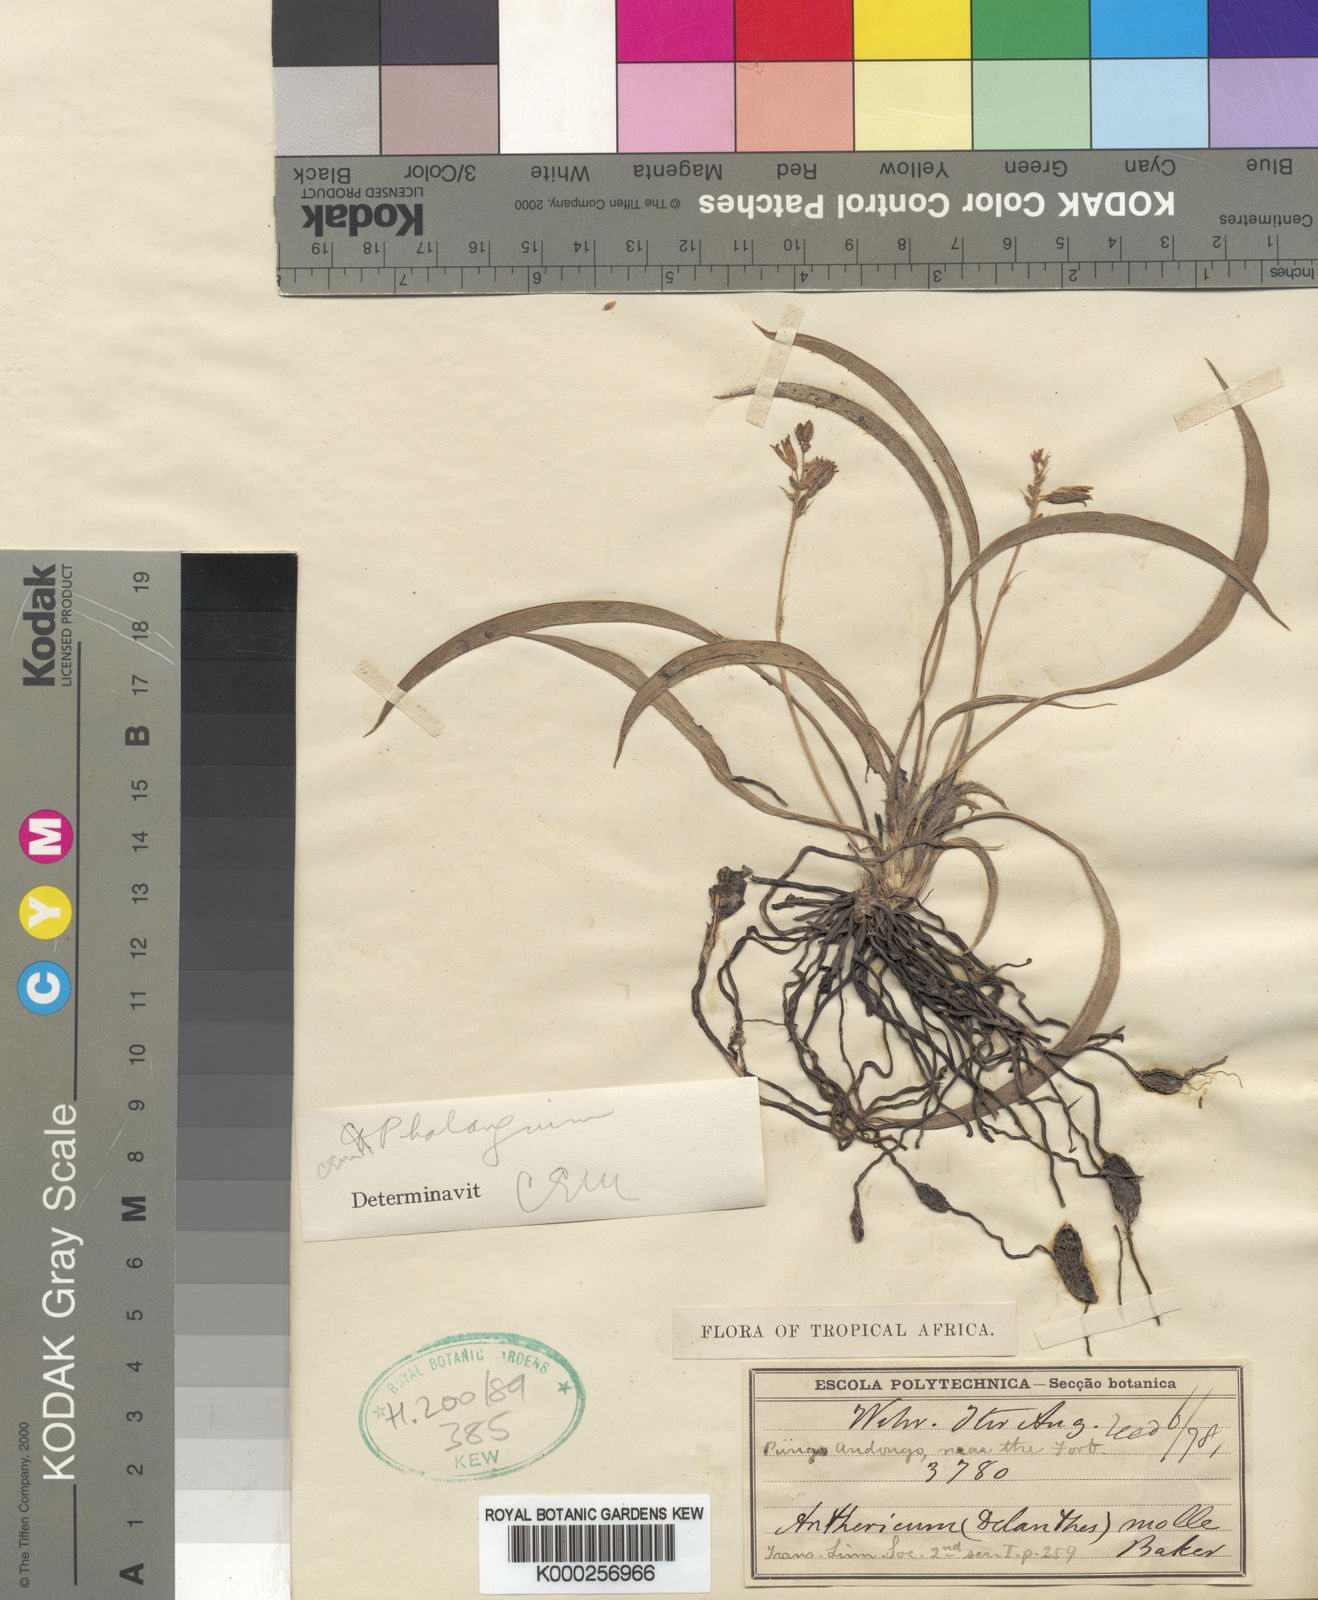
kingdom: Plantae
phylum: Tracheophyta
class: Liliopsida
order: Asparagales
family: Asparagaceae
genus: Chlorophytum
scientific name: Chlorophytum molle
